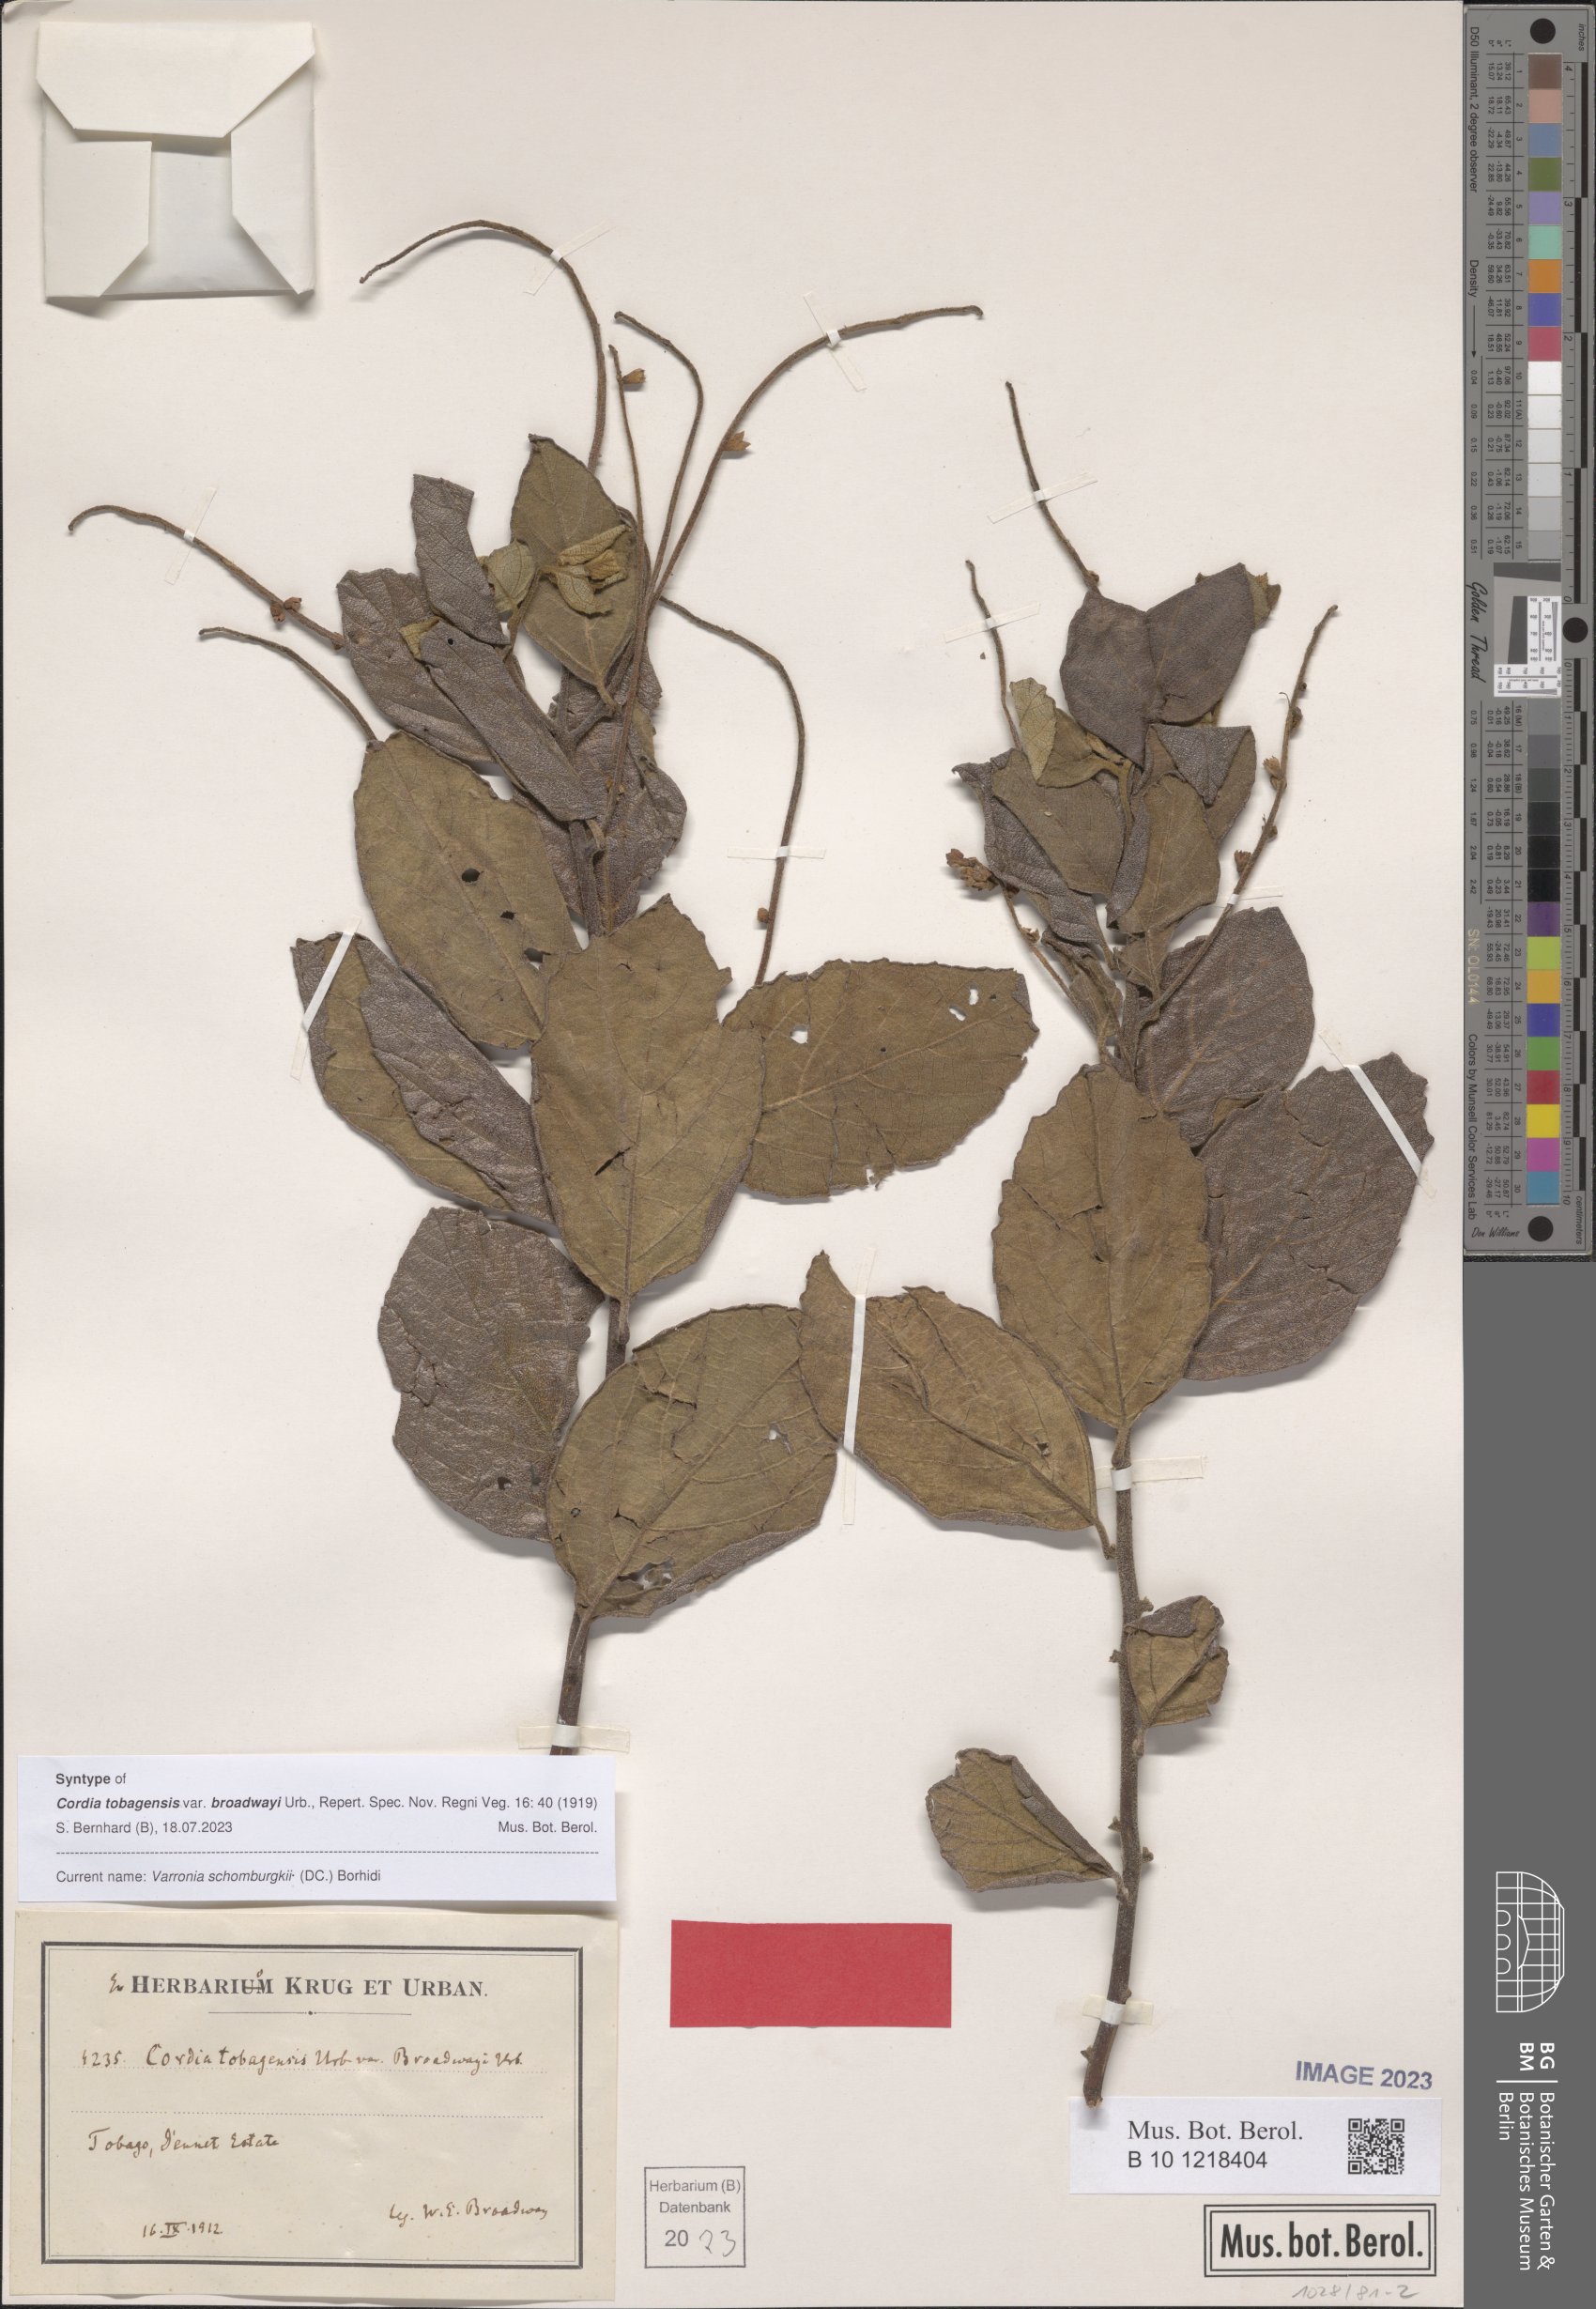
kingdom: Plantae
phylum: Tracheophyta
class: Magnoliopsida
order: Boraginales
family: Cordiaceae
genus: Varronia
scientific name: Varronia schomburgkii
